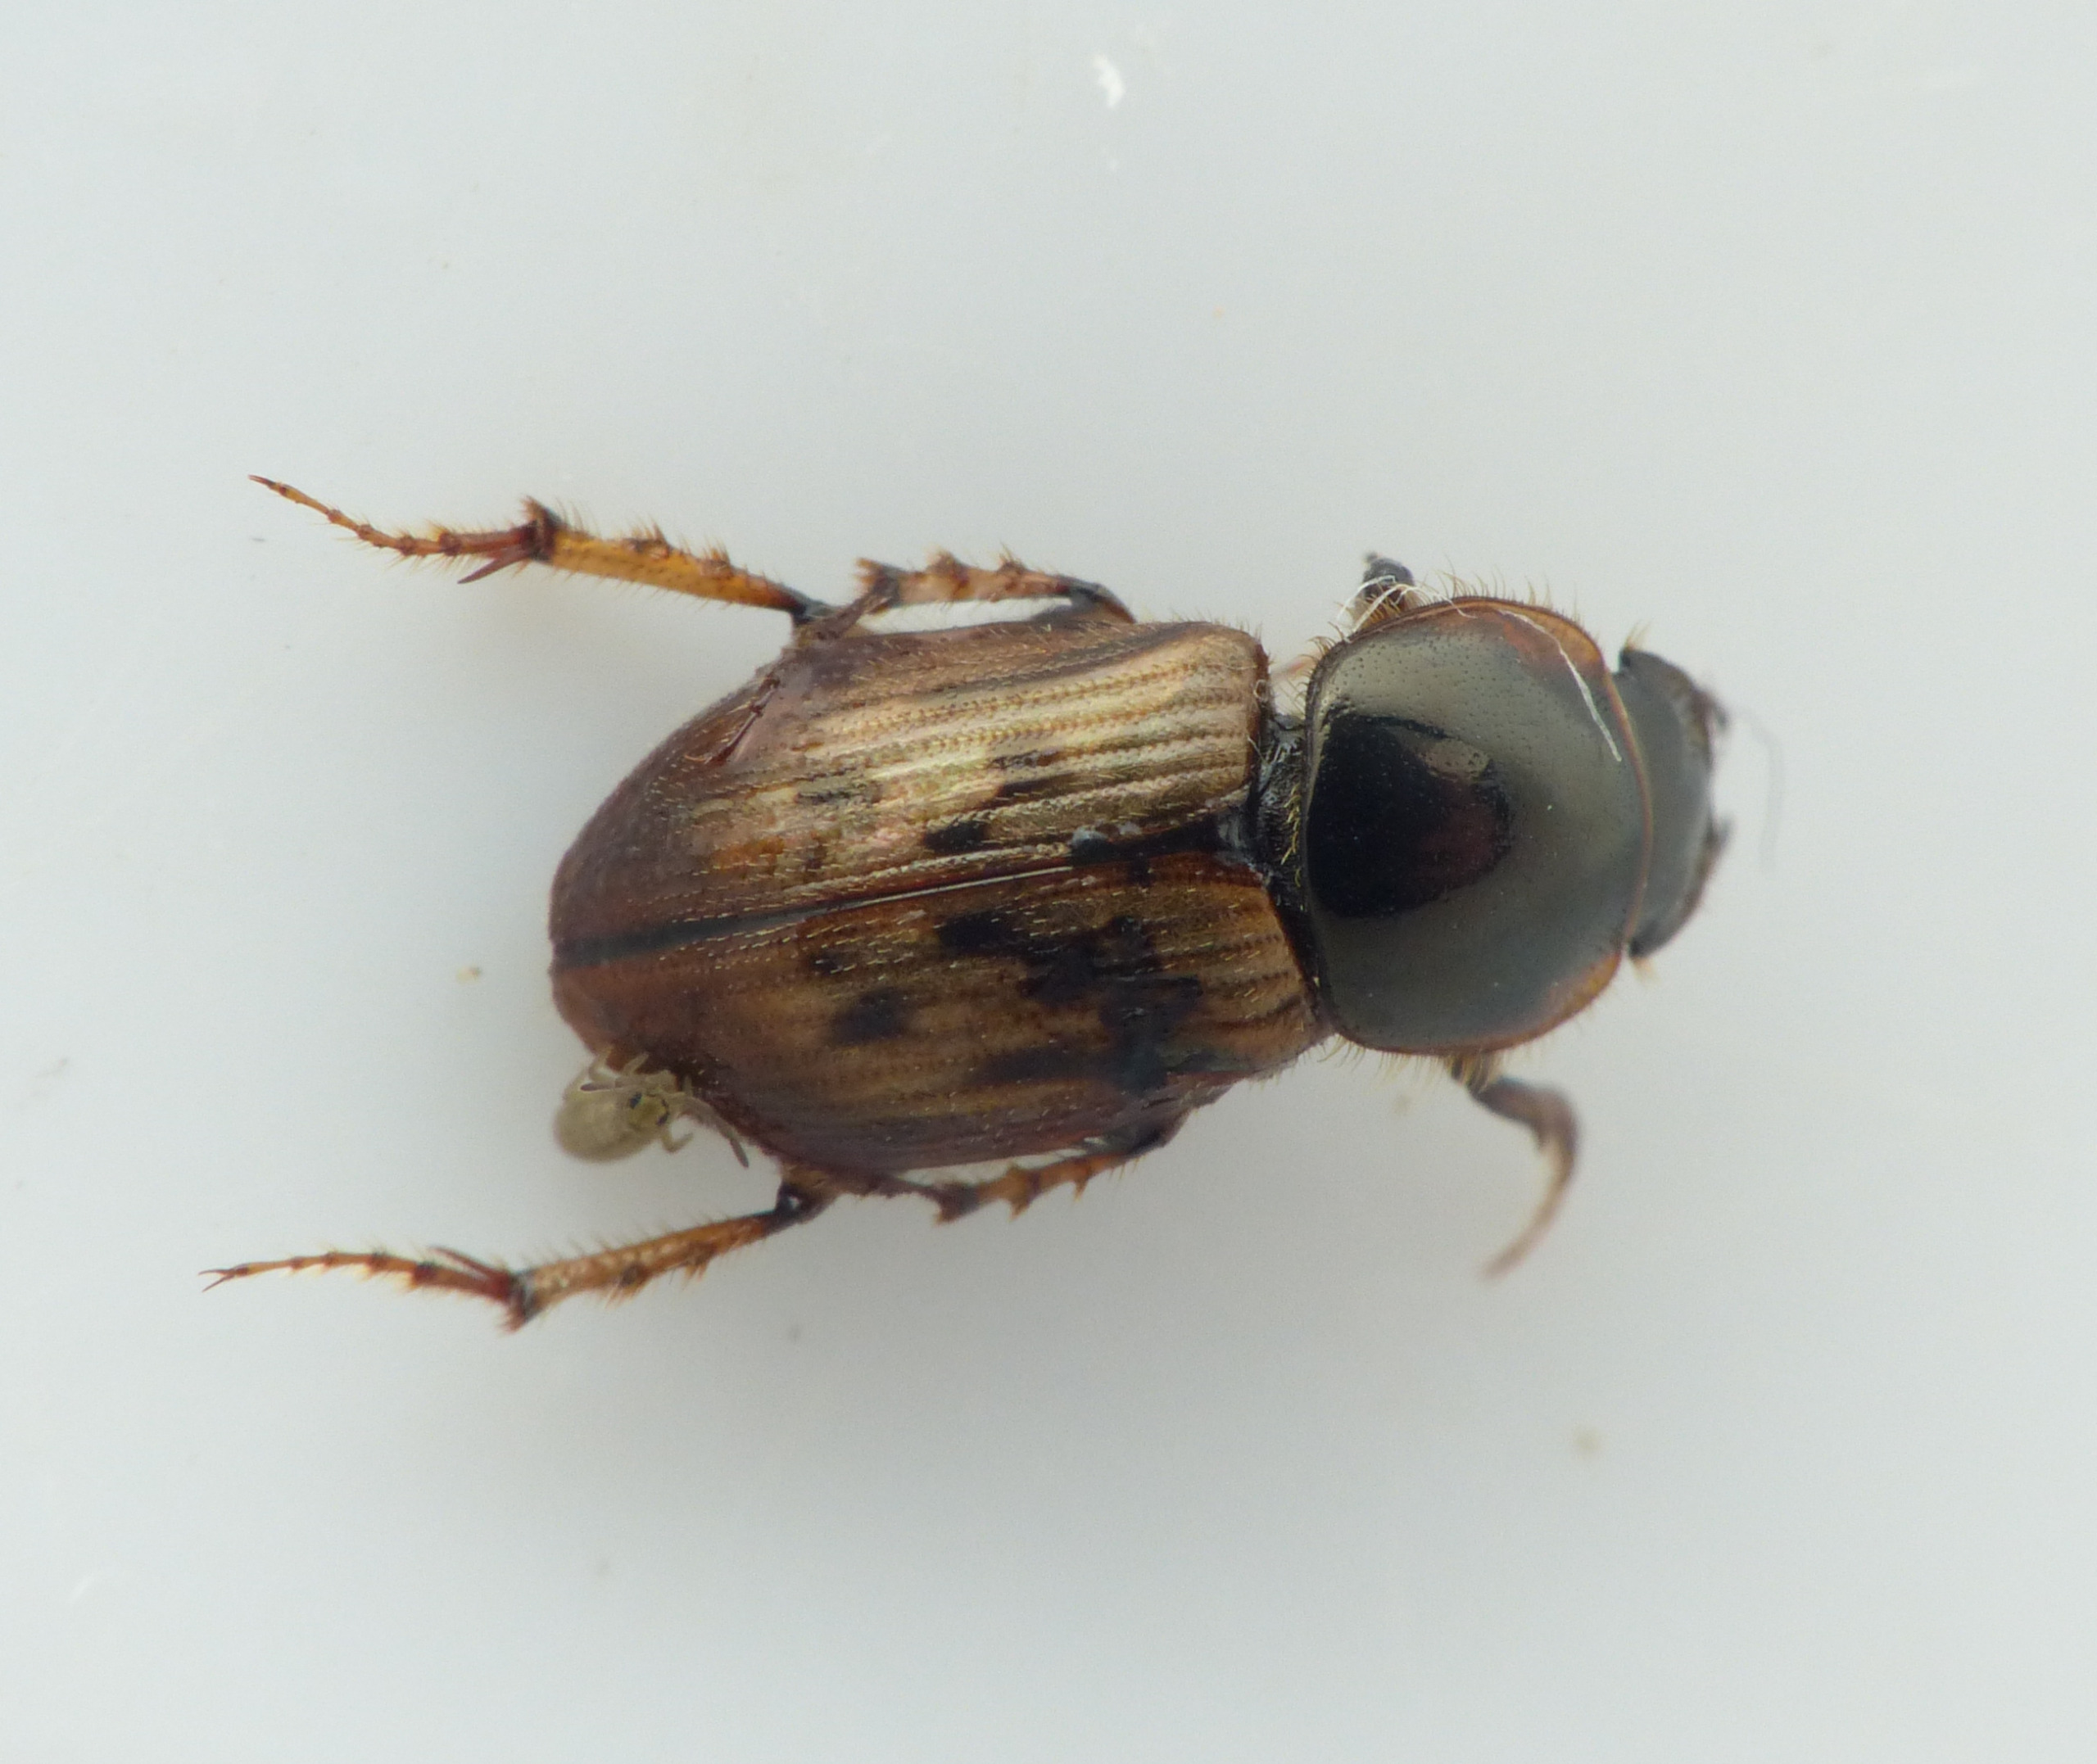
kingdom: Animalia
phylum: Arthropoda
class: Insecta
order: Coleoptera
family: Scarabaeidae
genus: Nimbus
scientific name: Nimbus contaminatus
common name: Sandhåret møgbille
